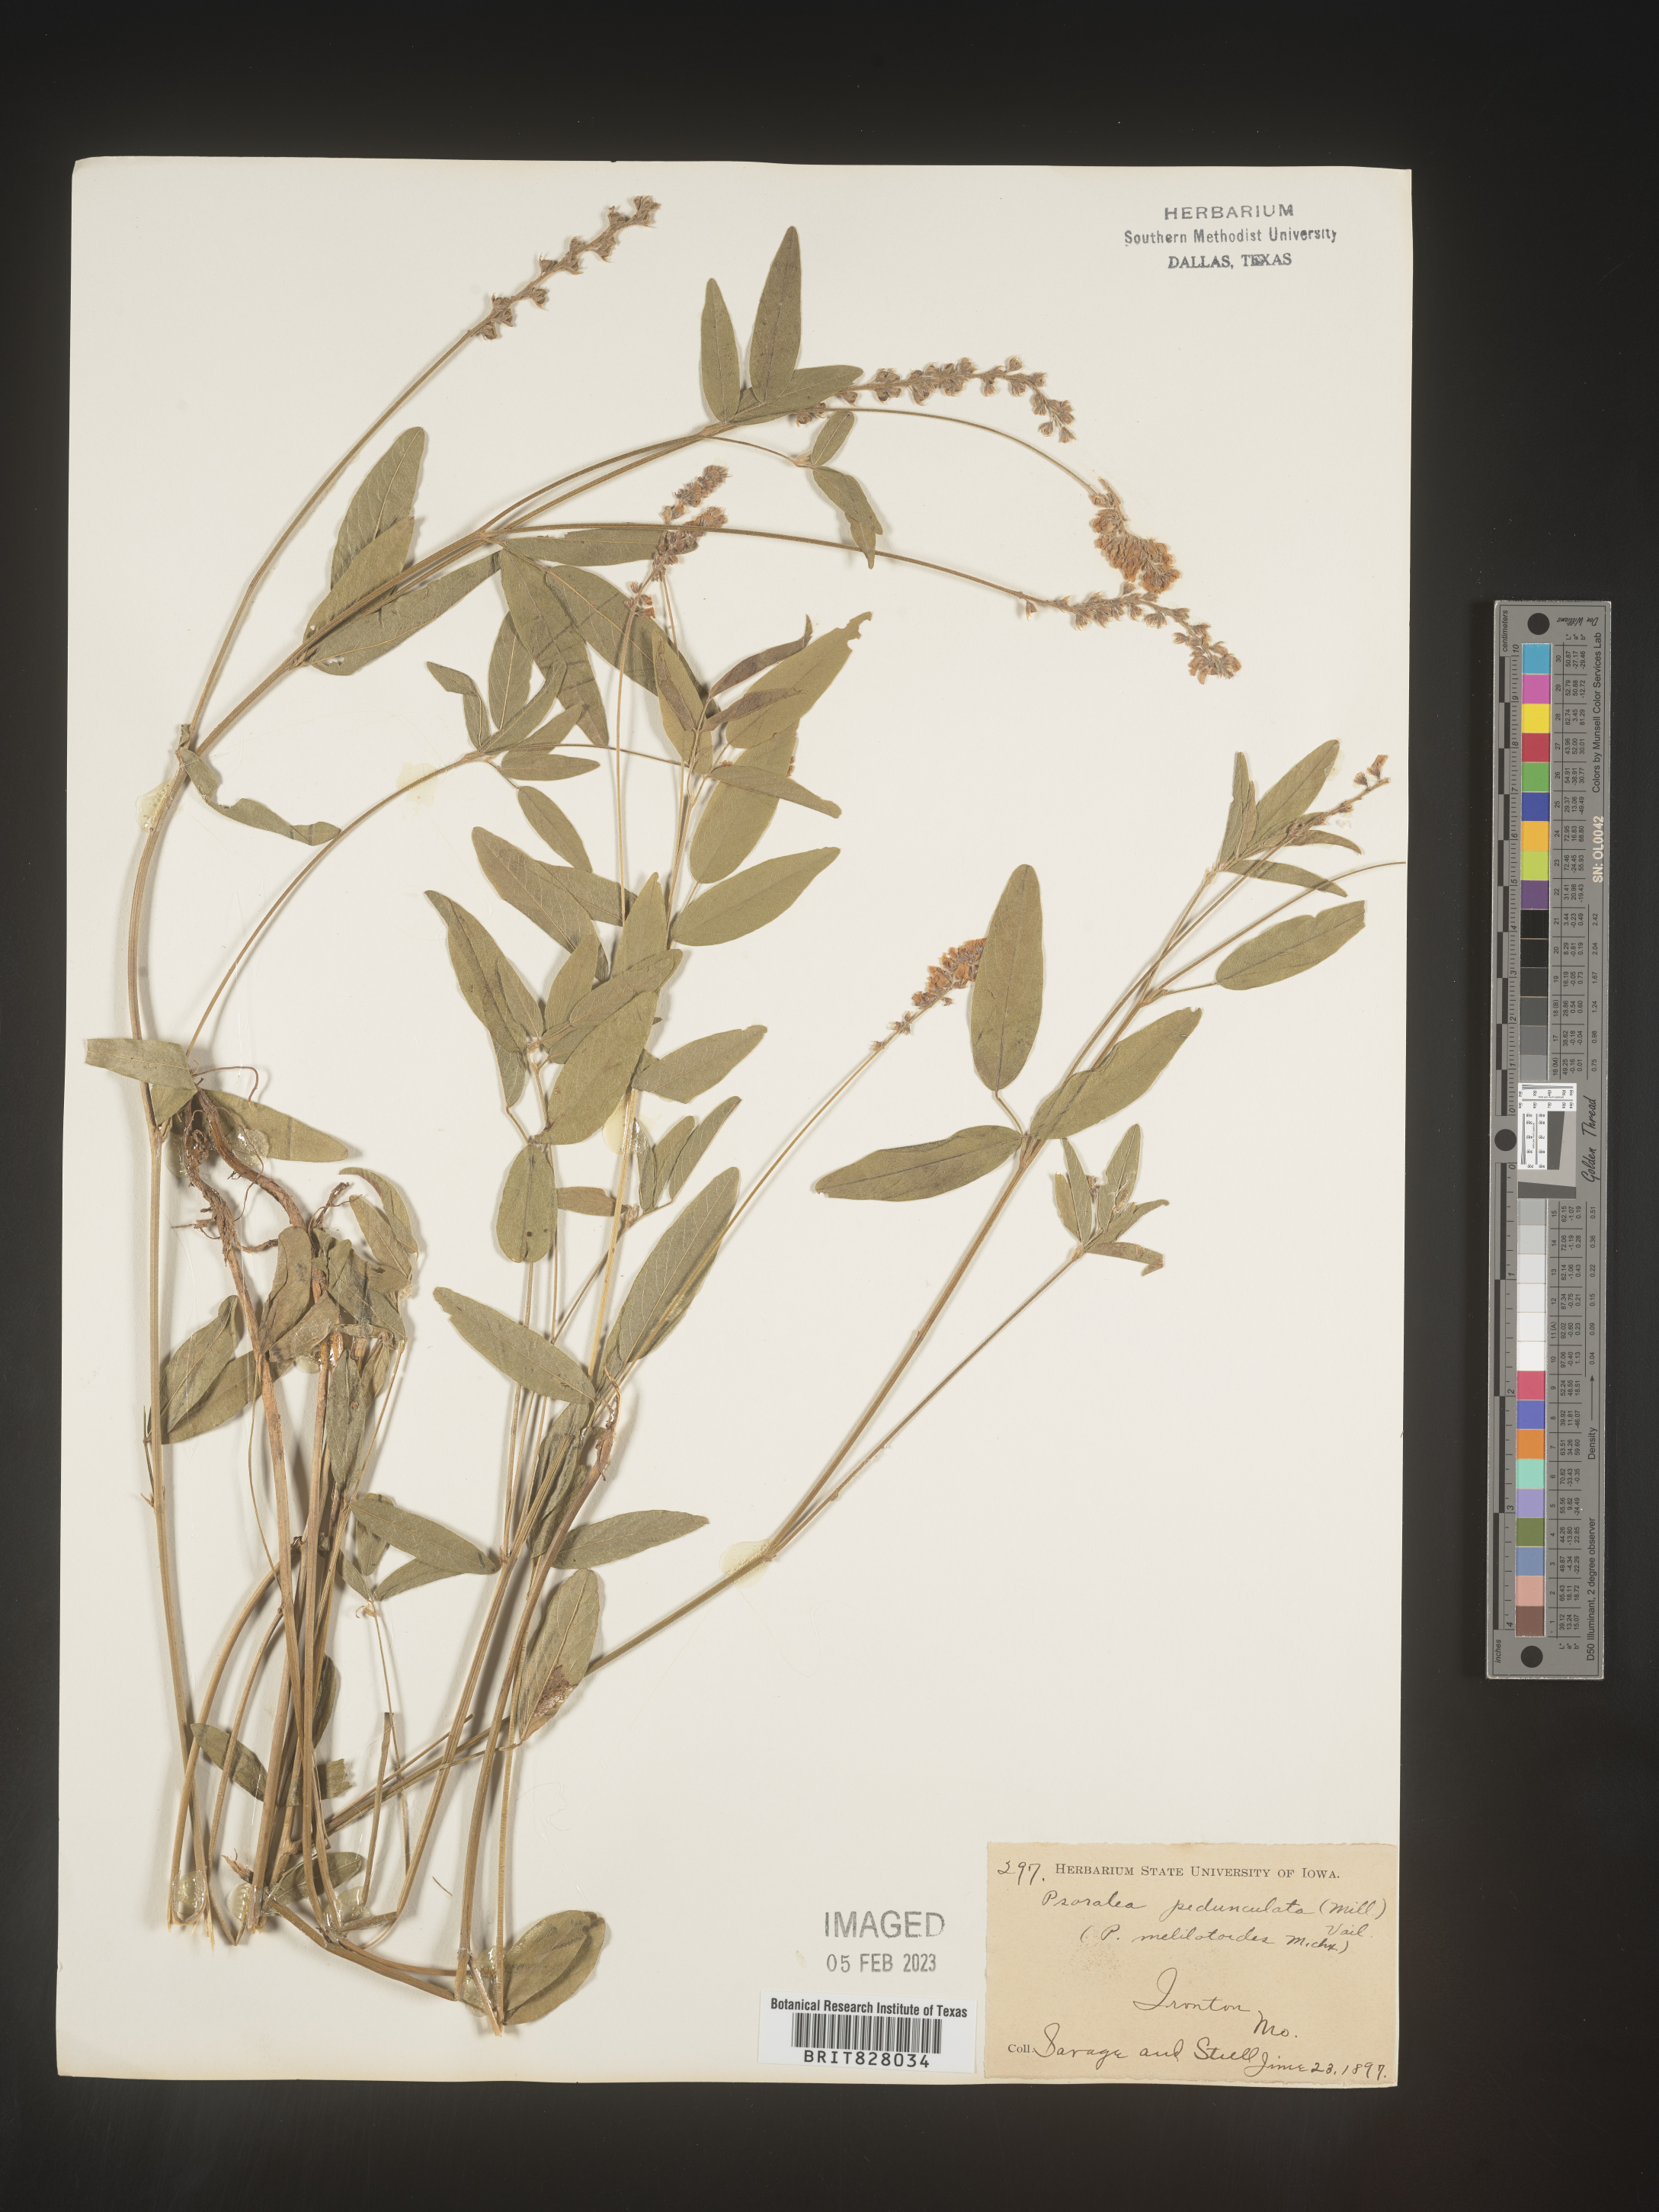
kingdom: Plantae
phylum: Tracheophyta
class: Magnoliopsida
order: Fabales
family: Fabaceae
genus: Orbexilum
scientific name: Orbexilum pedunculatum
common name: Sampson's snakeroot
